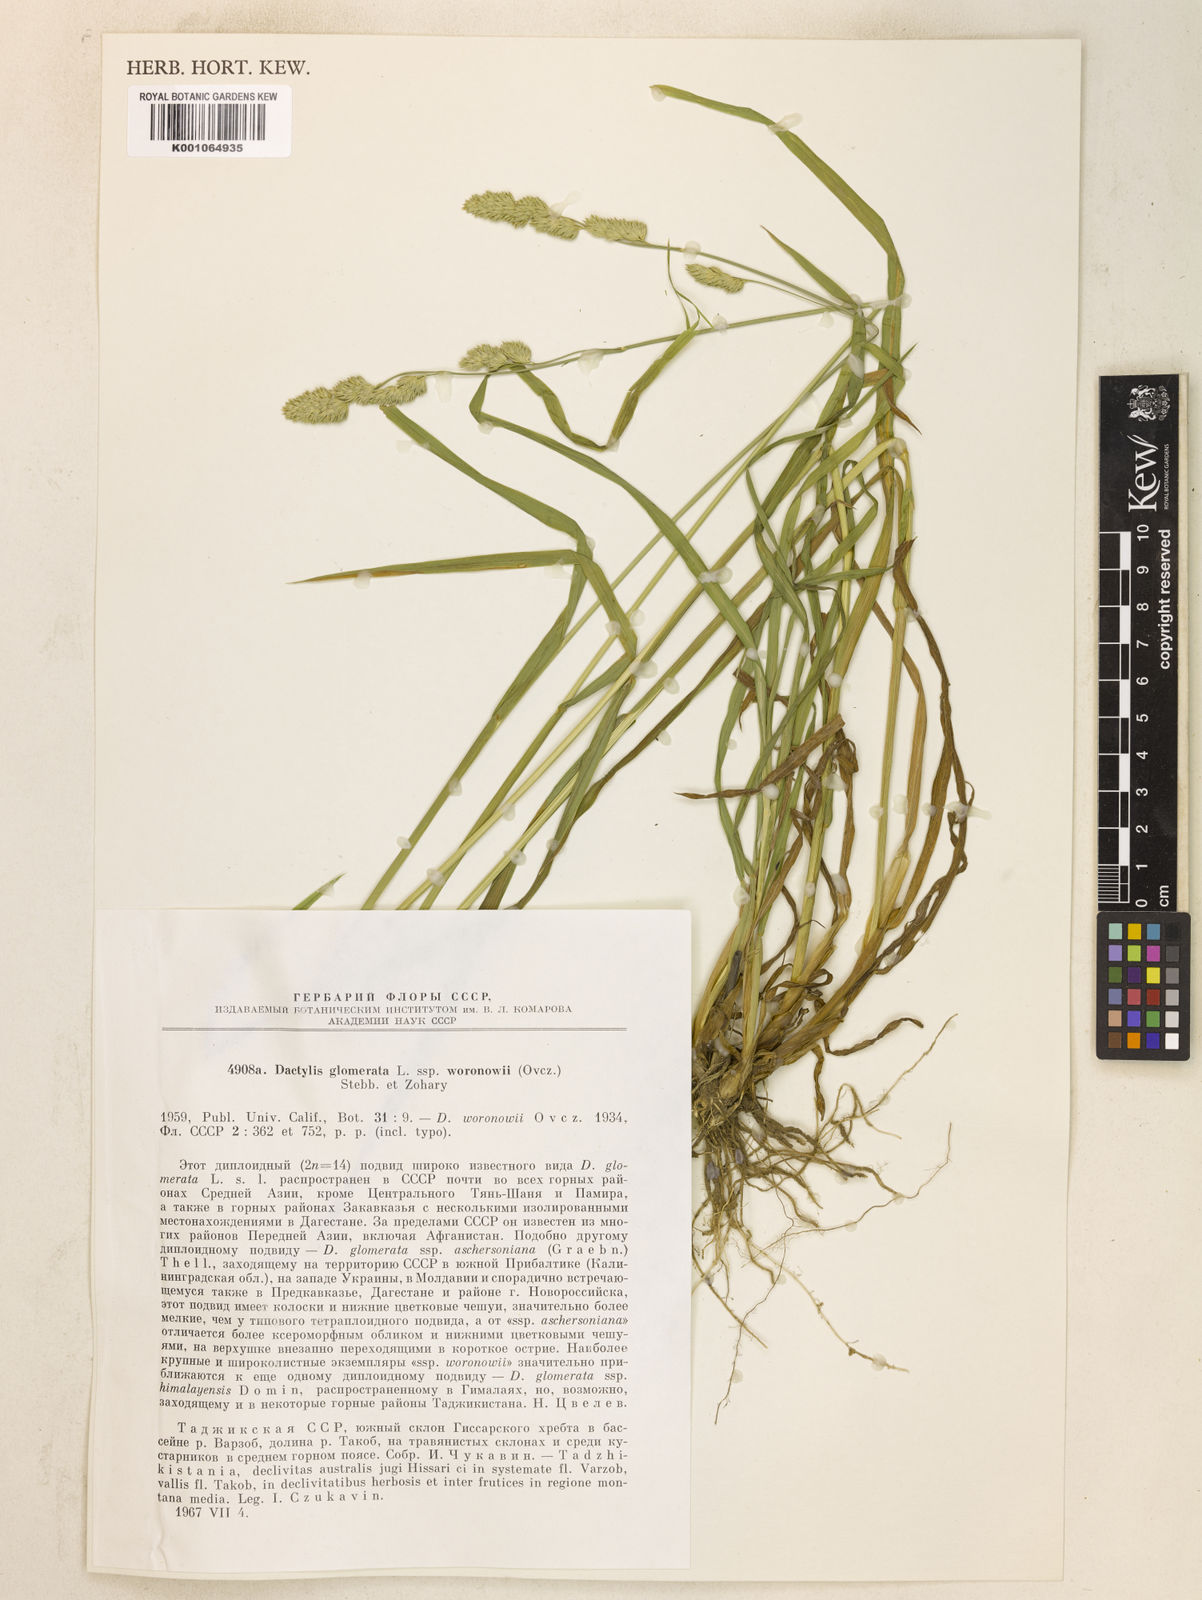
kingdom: Plantae
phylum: Tracheophyta
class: Liliopsida
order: Poales
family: Poaceae
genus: Dactylis
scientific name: Dactylis glomerata
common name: Orchardgrass
